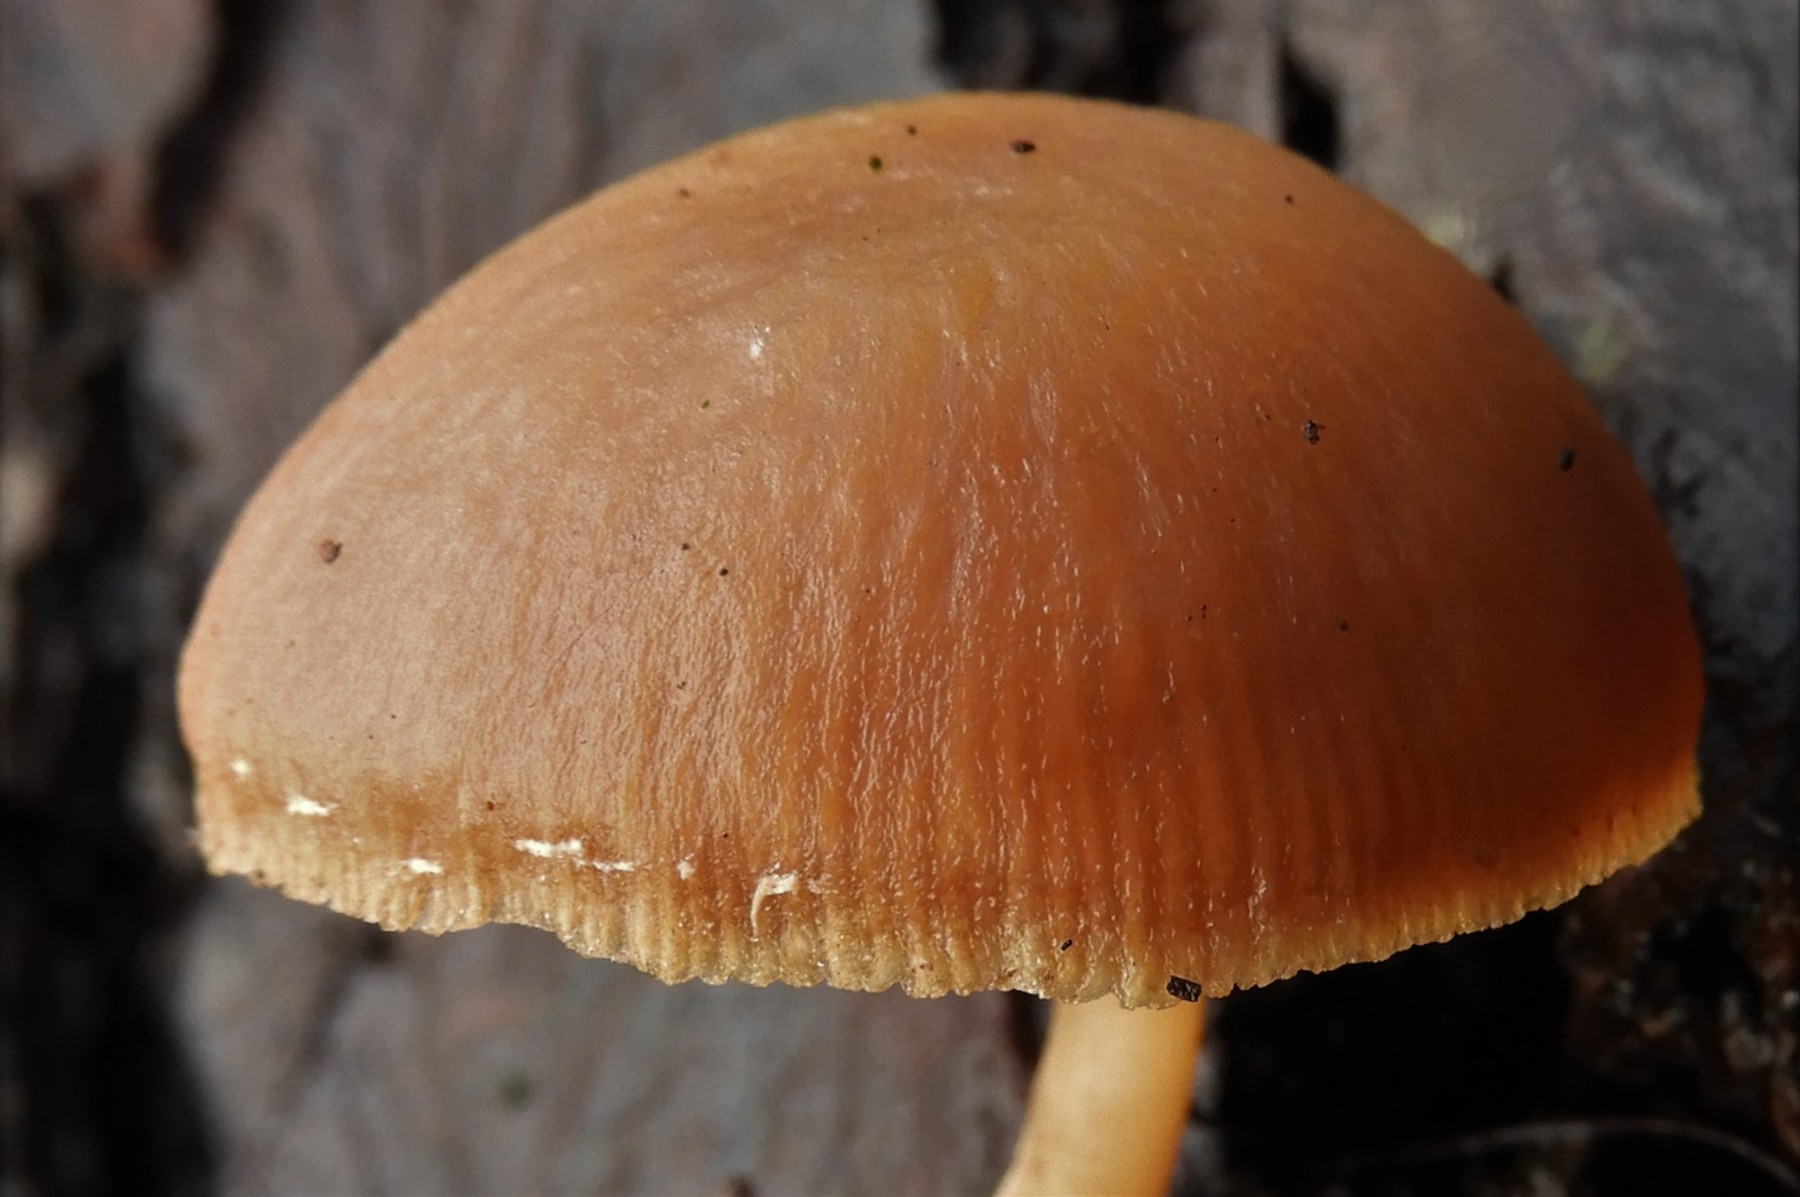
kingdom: Fungi
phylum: Basidiomycota
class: Agaricomycetes
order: Agaricales
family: Tubariaceae
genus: Tubaria
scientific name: Tubaria furfuracea
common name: kliddet fnughat
